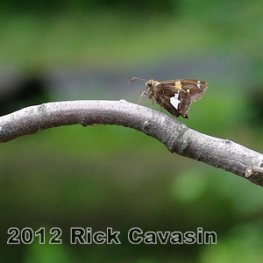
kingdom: Animalia
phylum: Arthropoda
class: Insecta
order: Lepidoptera
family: Hesperiidae
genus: Epargyreus
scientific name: Epargyreus clarus
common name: Silver-spotted Skipper
